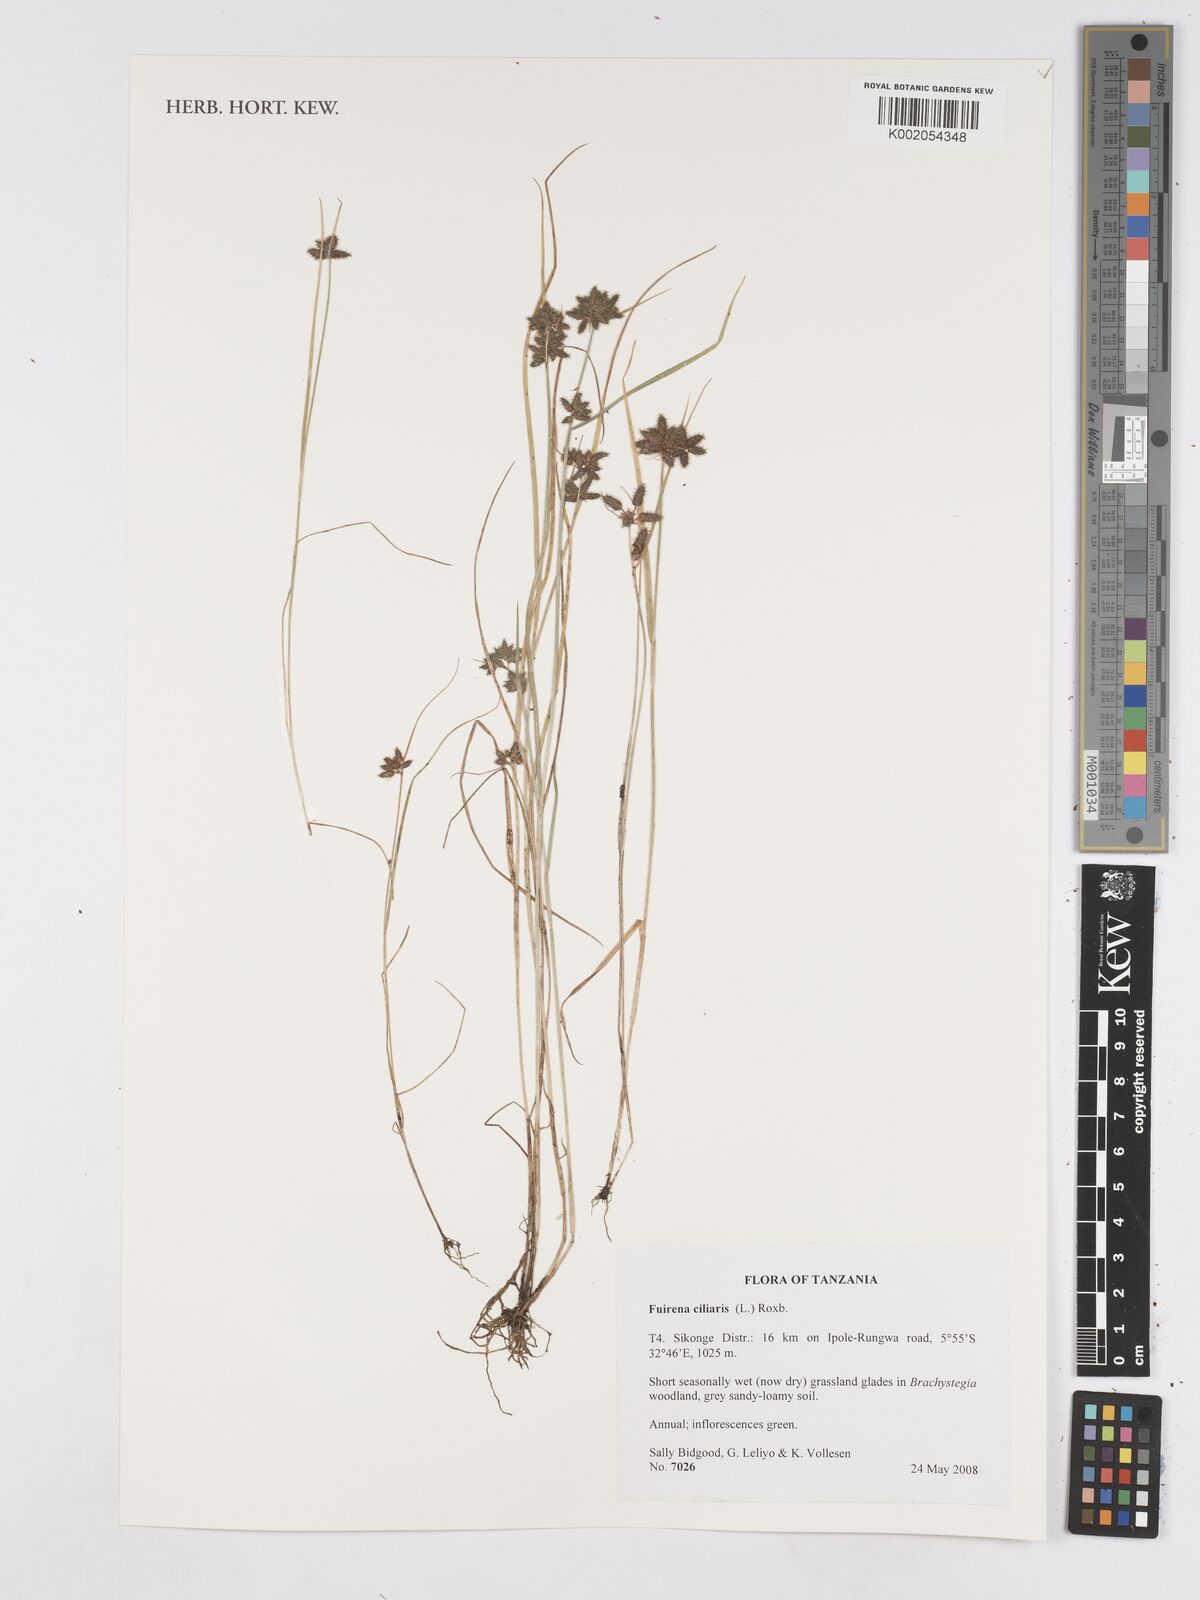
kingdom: Plantae
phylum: Tracheophyta
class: Liliopsida
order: Poales
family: Cyperaceae
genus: Fuirena
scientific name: Fuirena ciliaris
